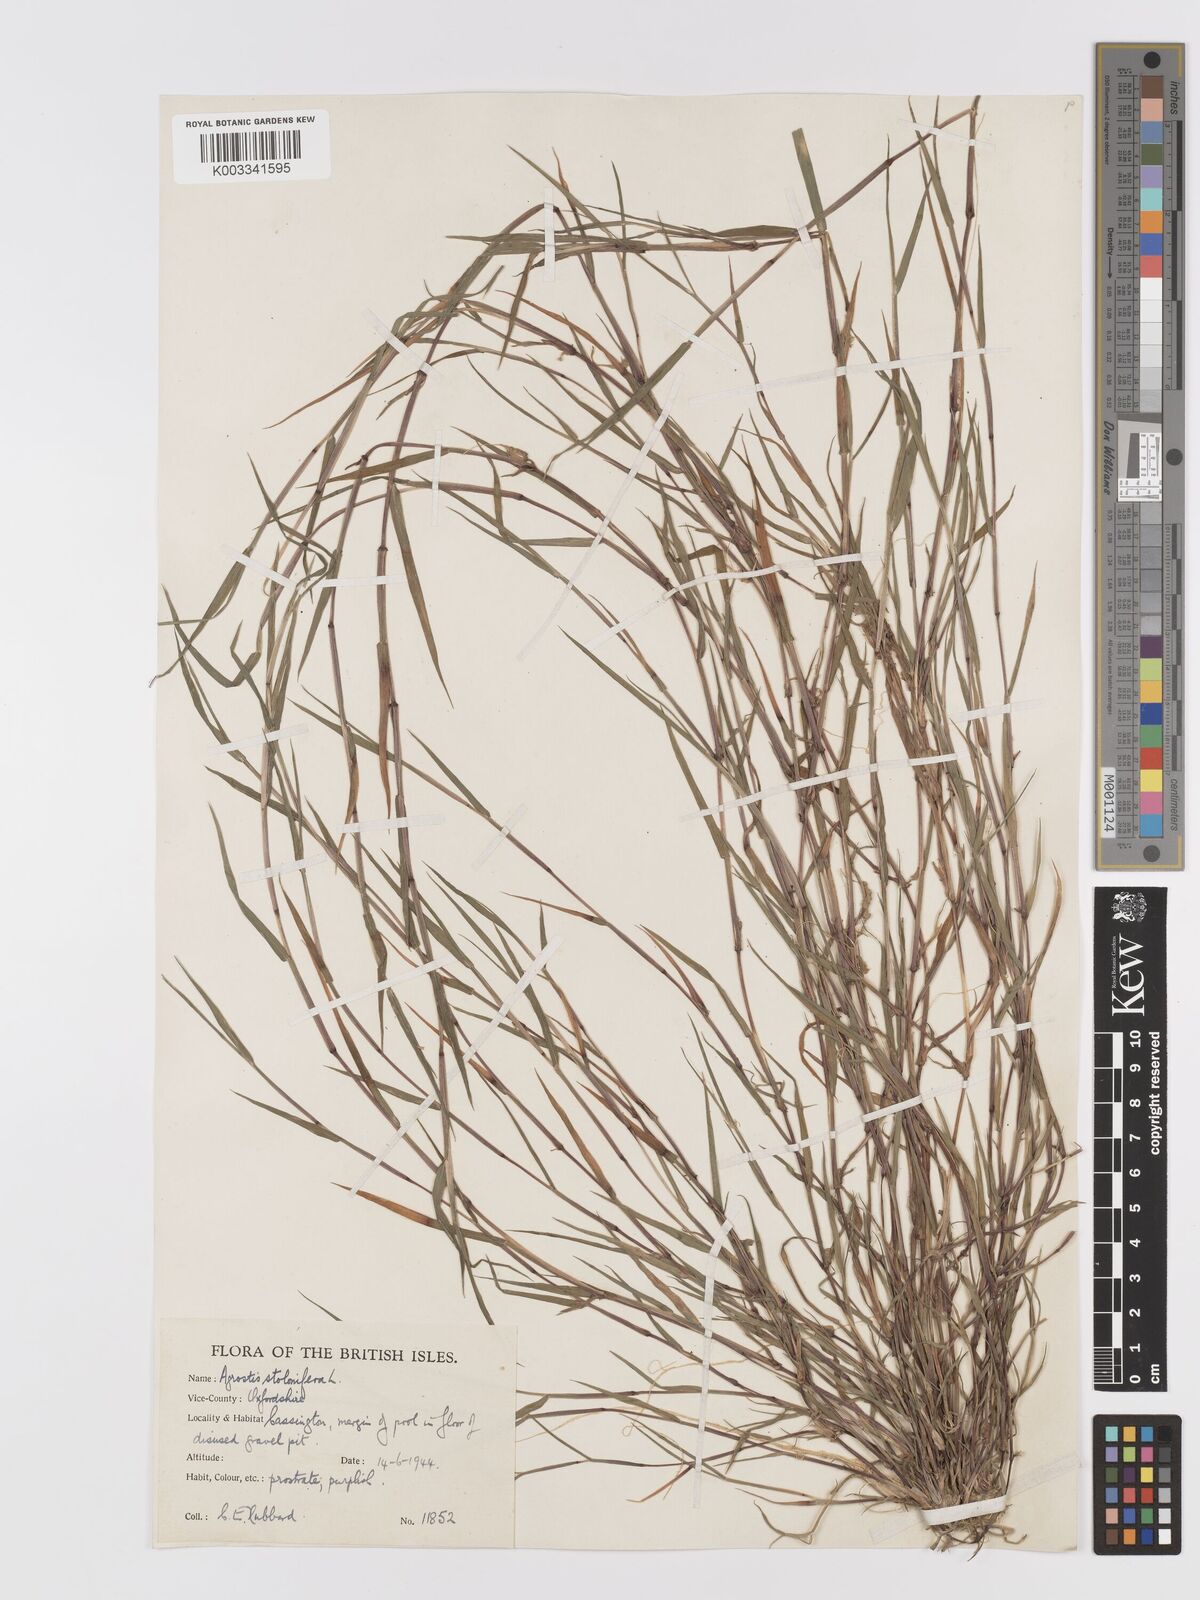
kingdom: Plantae
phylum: Tracheophyta
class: Liliopsida
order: Poales
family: Poaceae
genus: Agrostis
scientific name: Agrostis stolonifera
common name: Creeping bentgrass
